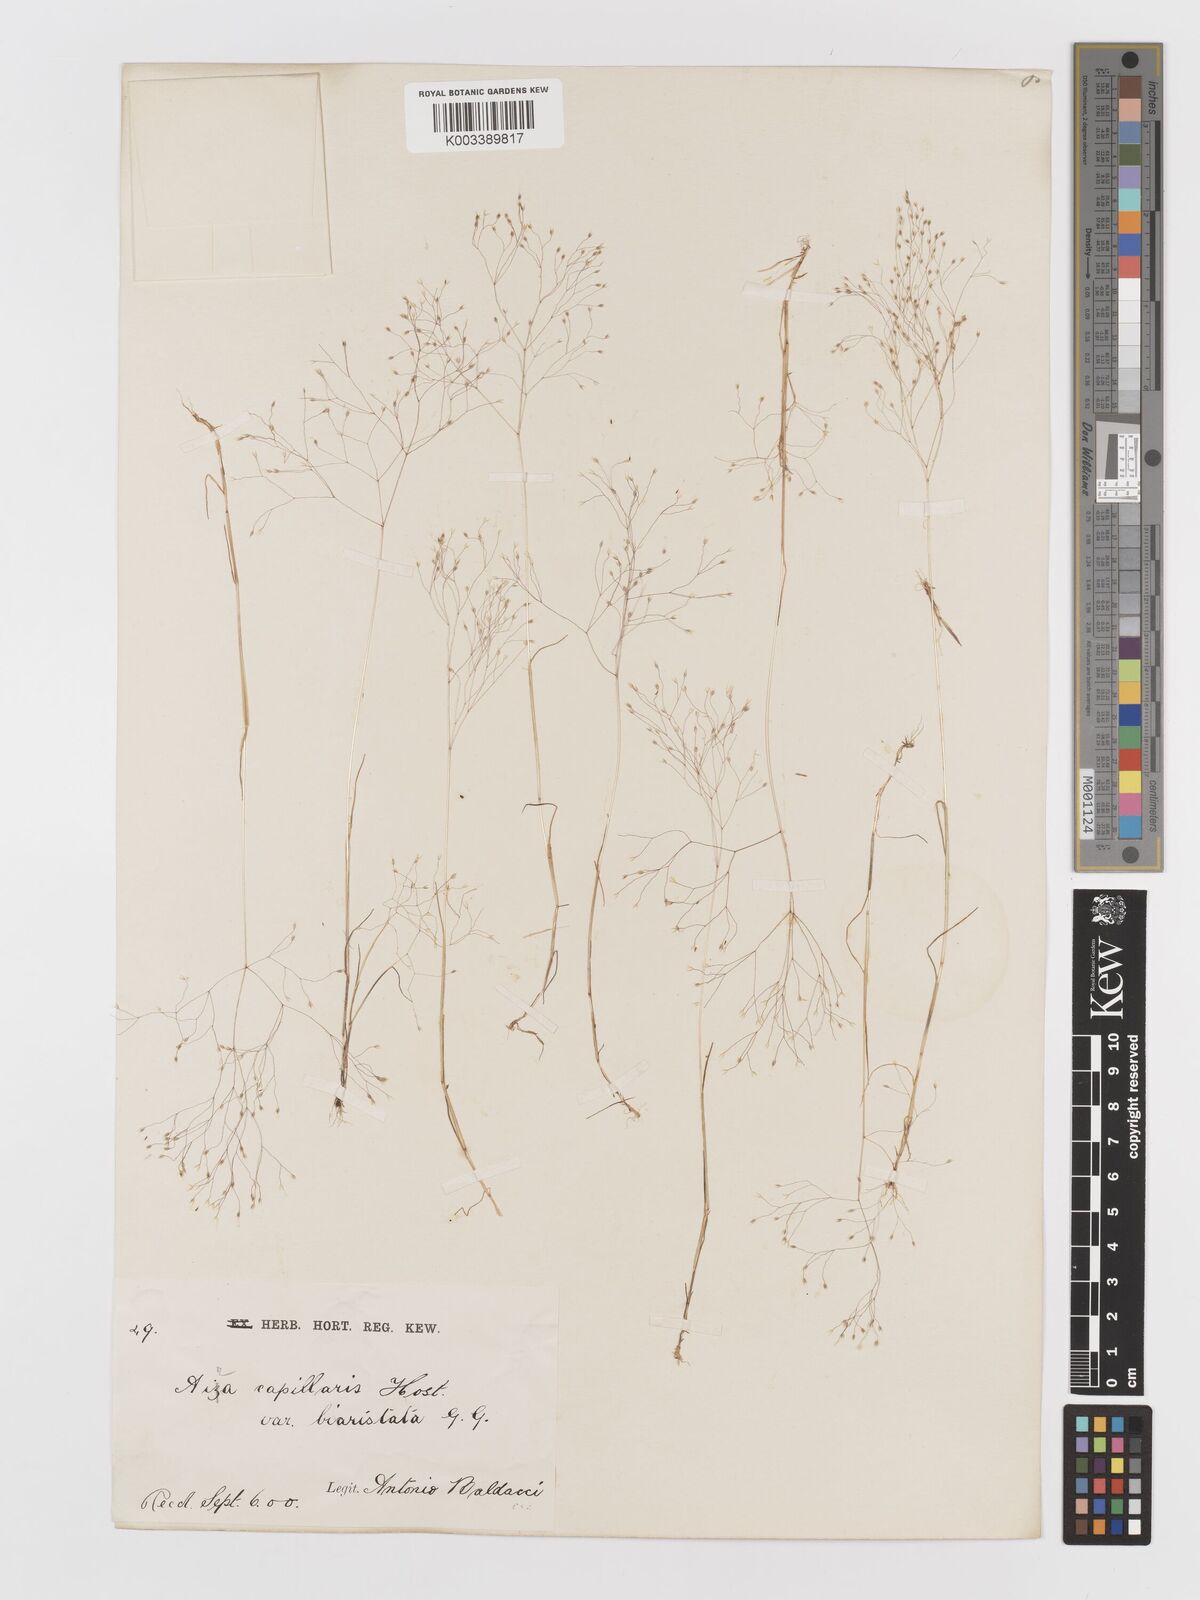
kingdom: Plantae
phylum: Tracheophyta
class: Liliopsida
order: Poales
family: Poaceae
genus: Aira
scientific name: Aira elegans
